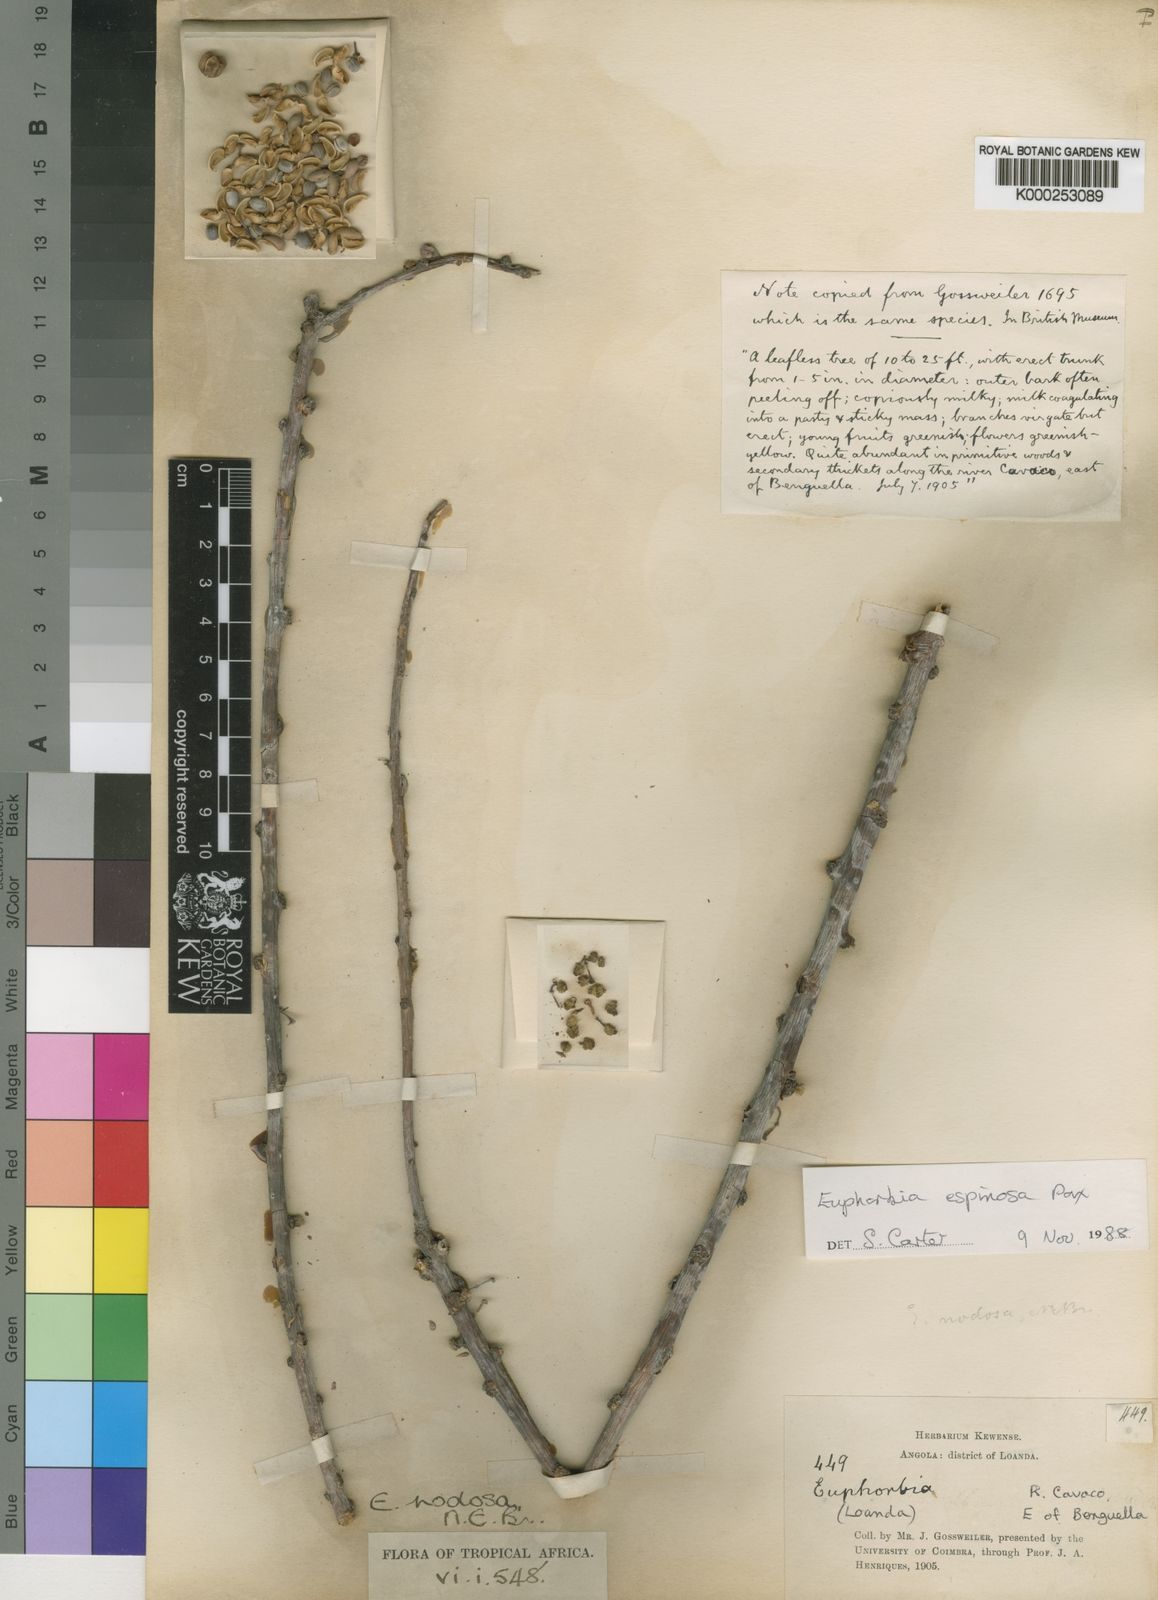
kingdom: Plantae
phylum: Tracheophyta
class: Magnoliopsida
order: Malpighiales
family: Euphorbiaceae
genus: Euphorbia
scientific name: Euphorbia espinosa
